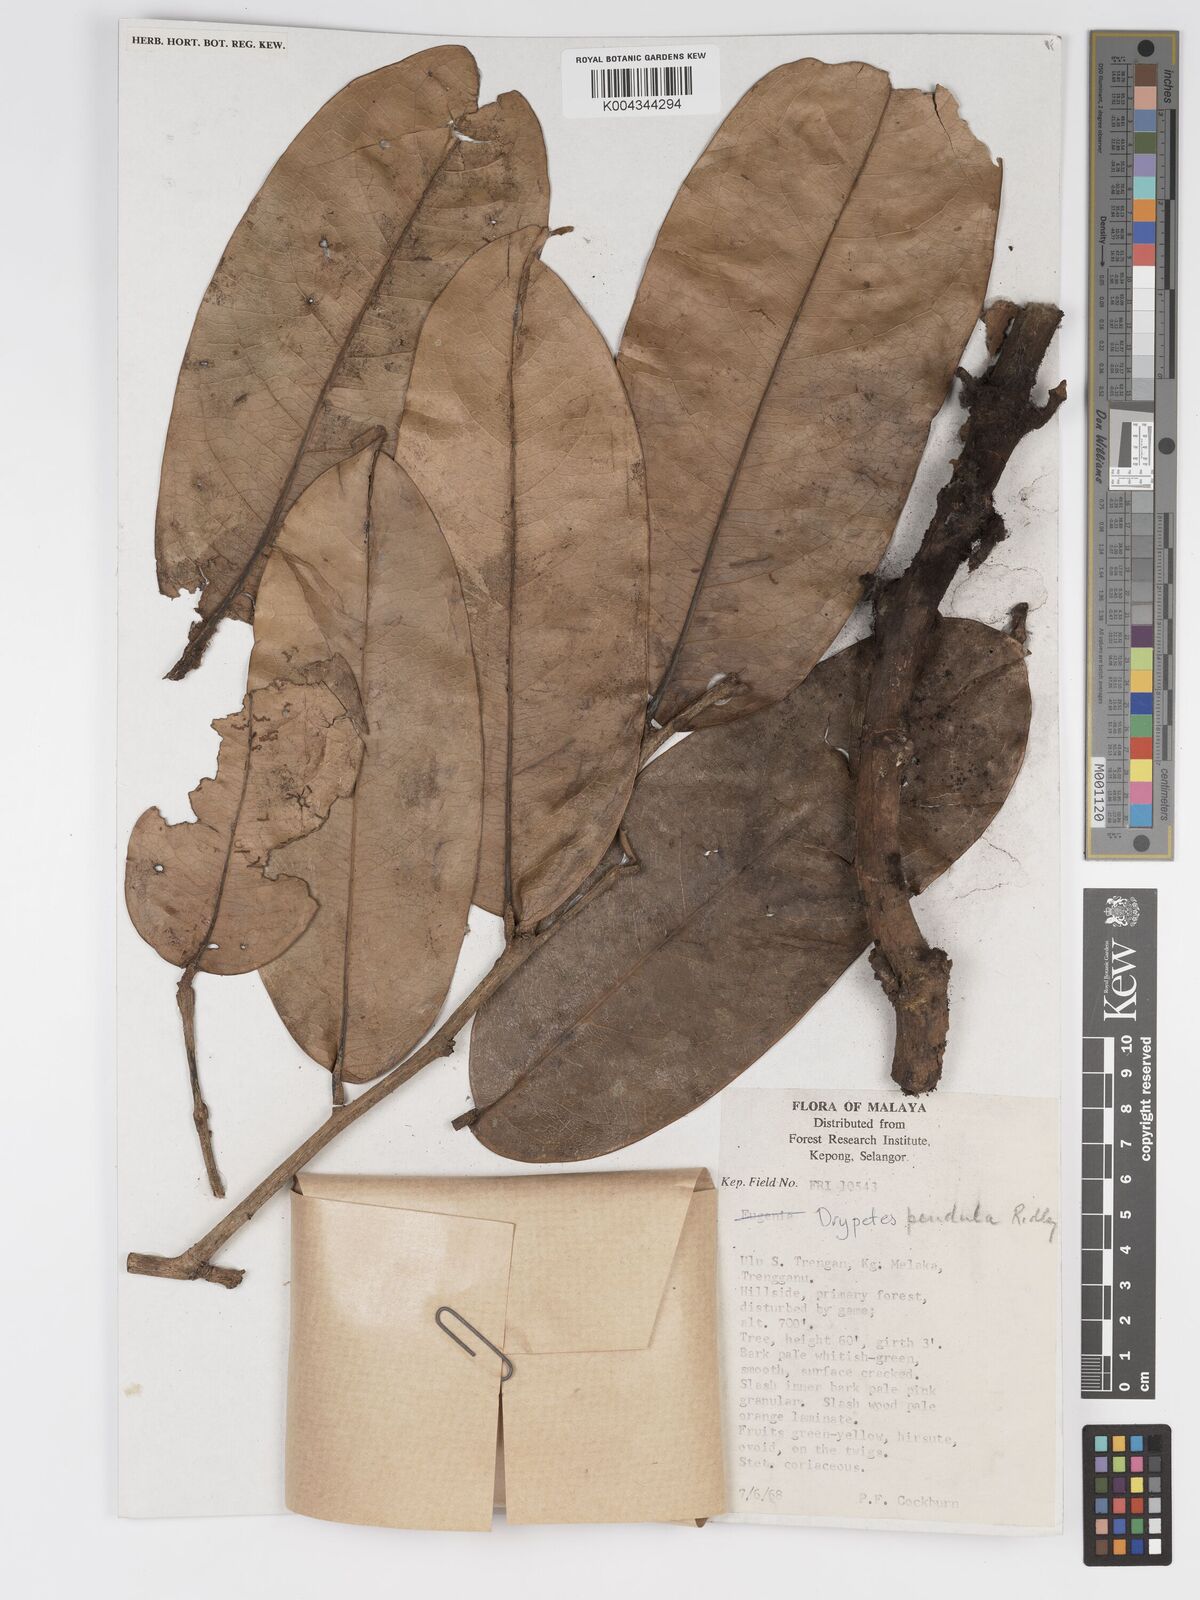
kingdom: Plantae
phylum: Tracheophyta
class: Magnoliopsida
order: Malpighiales
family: Putranjivaceae
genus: Drypetes
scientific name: Drypetes pendula
